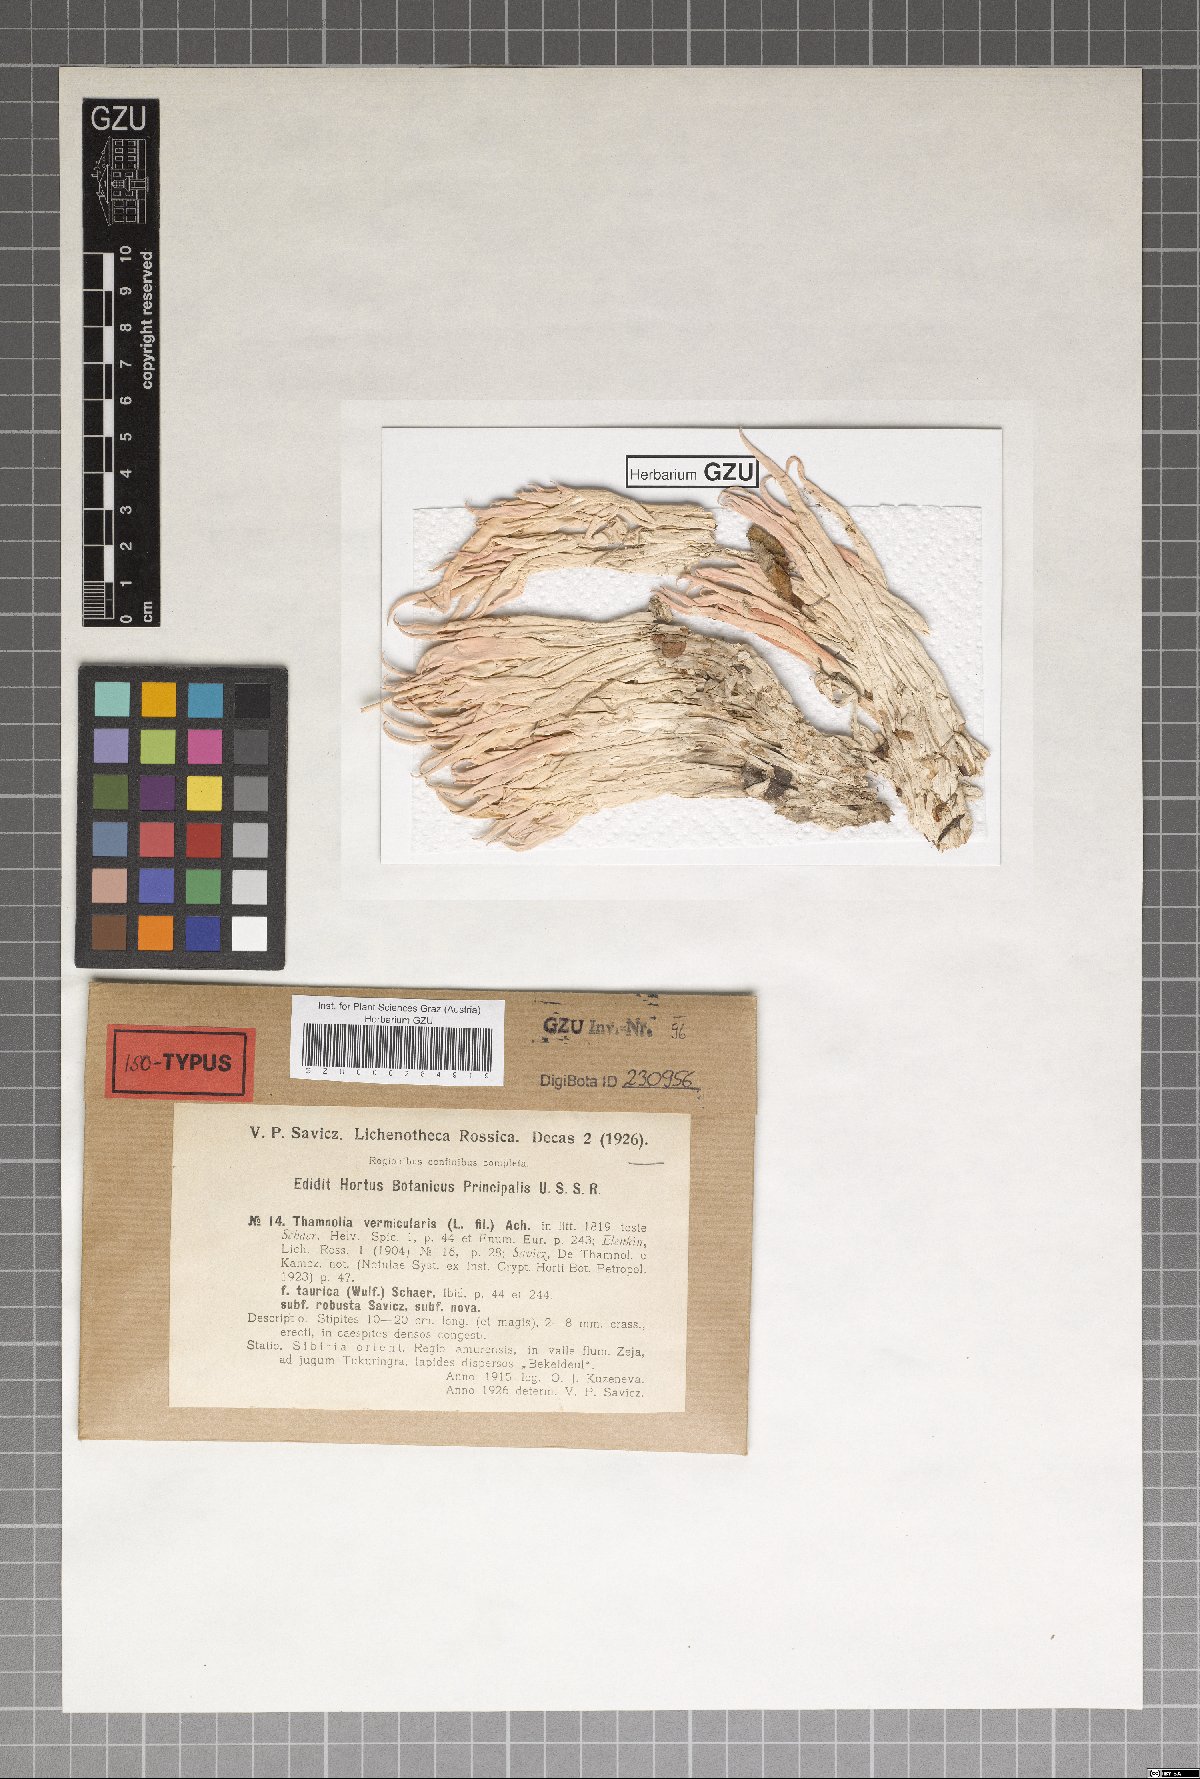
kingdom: Fungi
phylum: Ascomycota
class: Lecanoromycetes
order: Pertusariales
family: Icmadophilaceae
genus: Thamnolia
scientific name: Thamnolia vermicularis
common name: Whiteworm lichen
